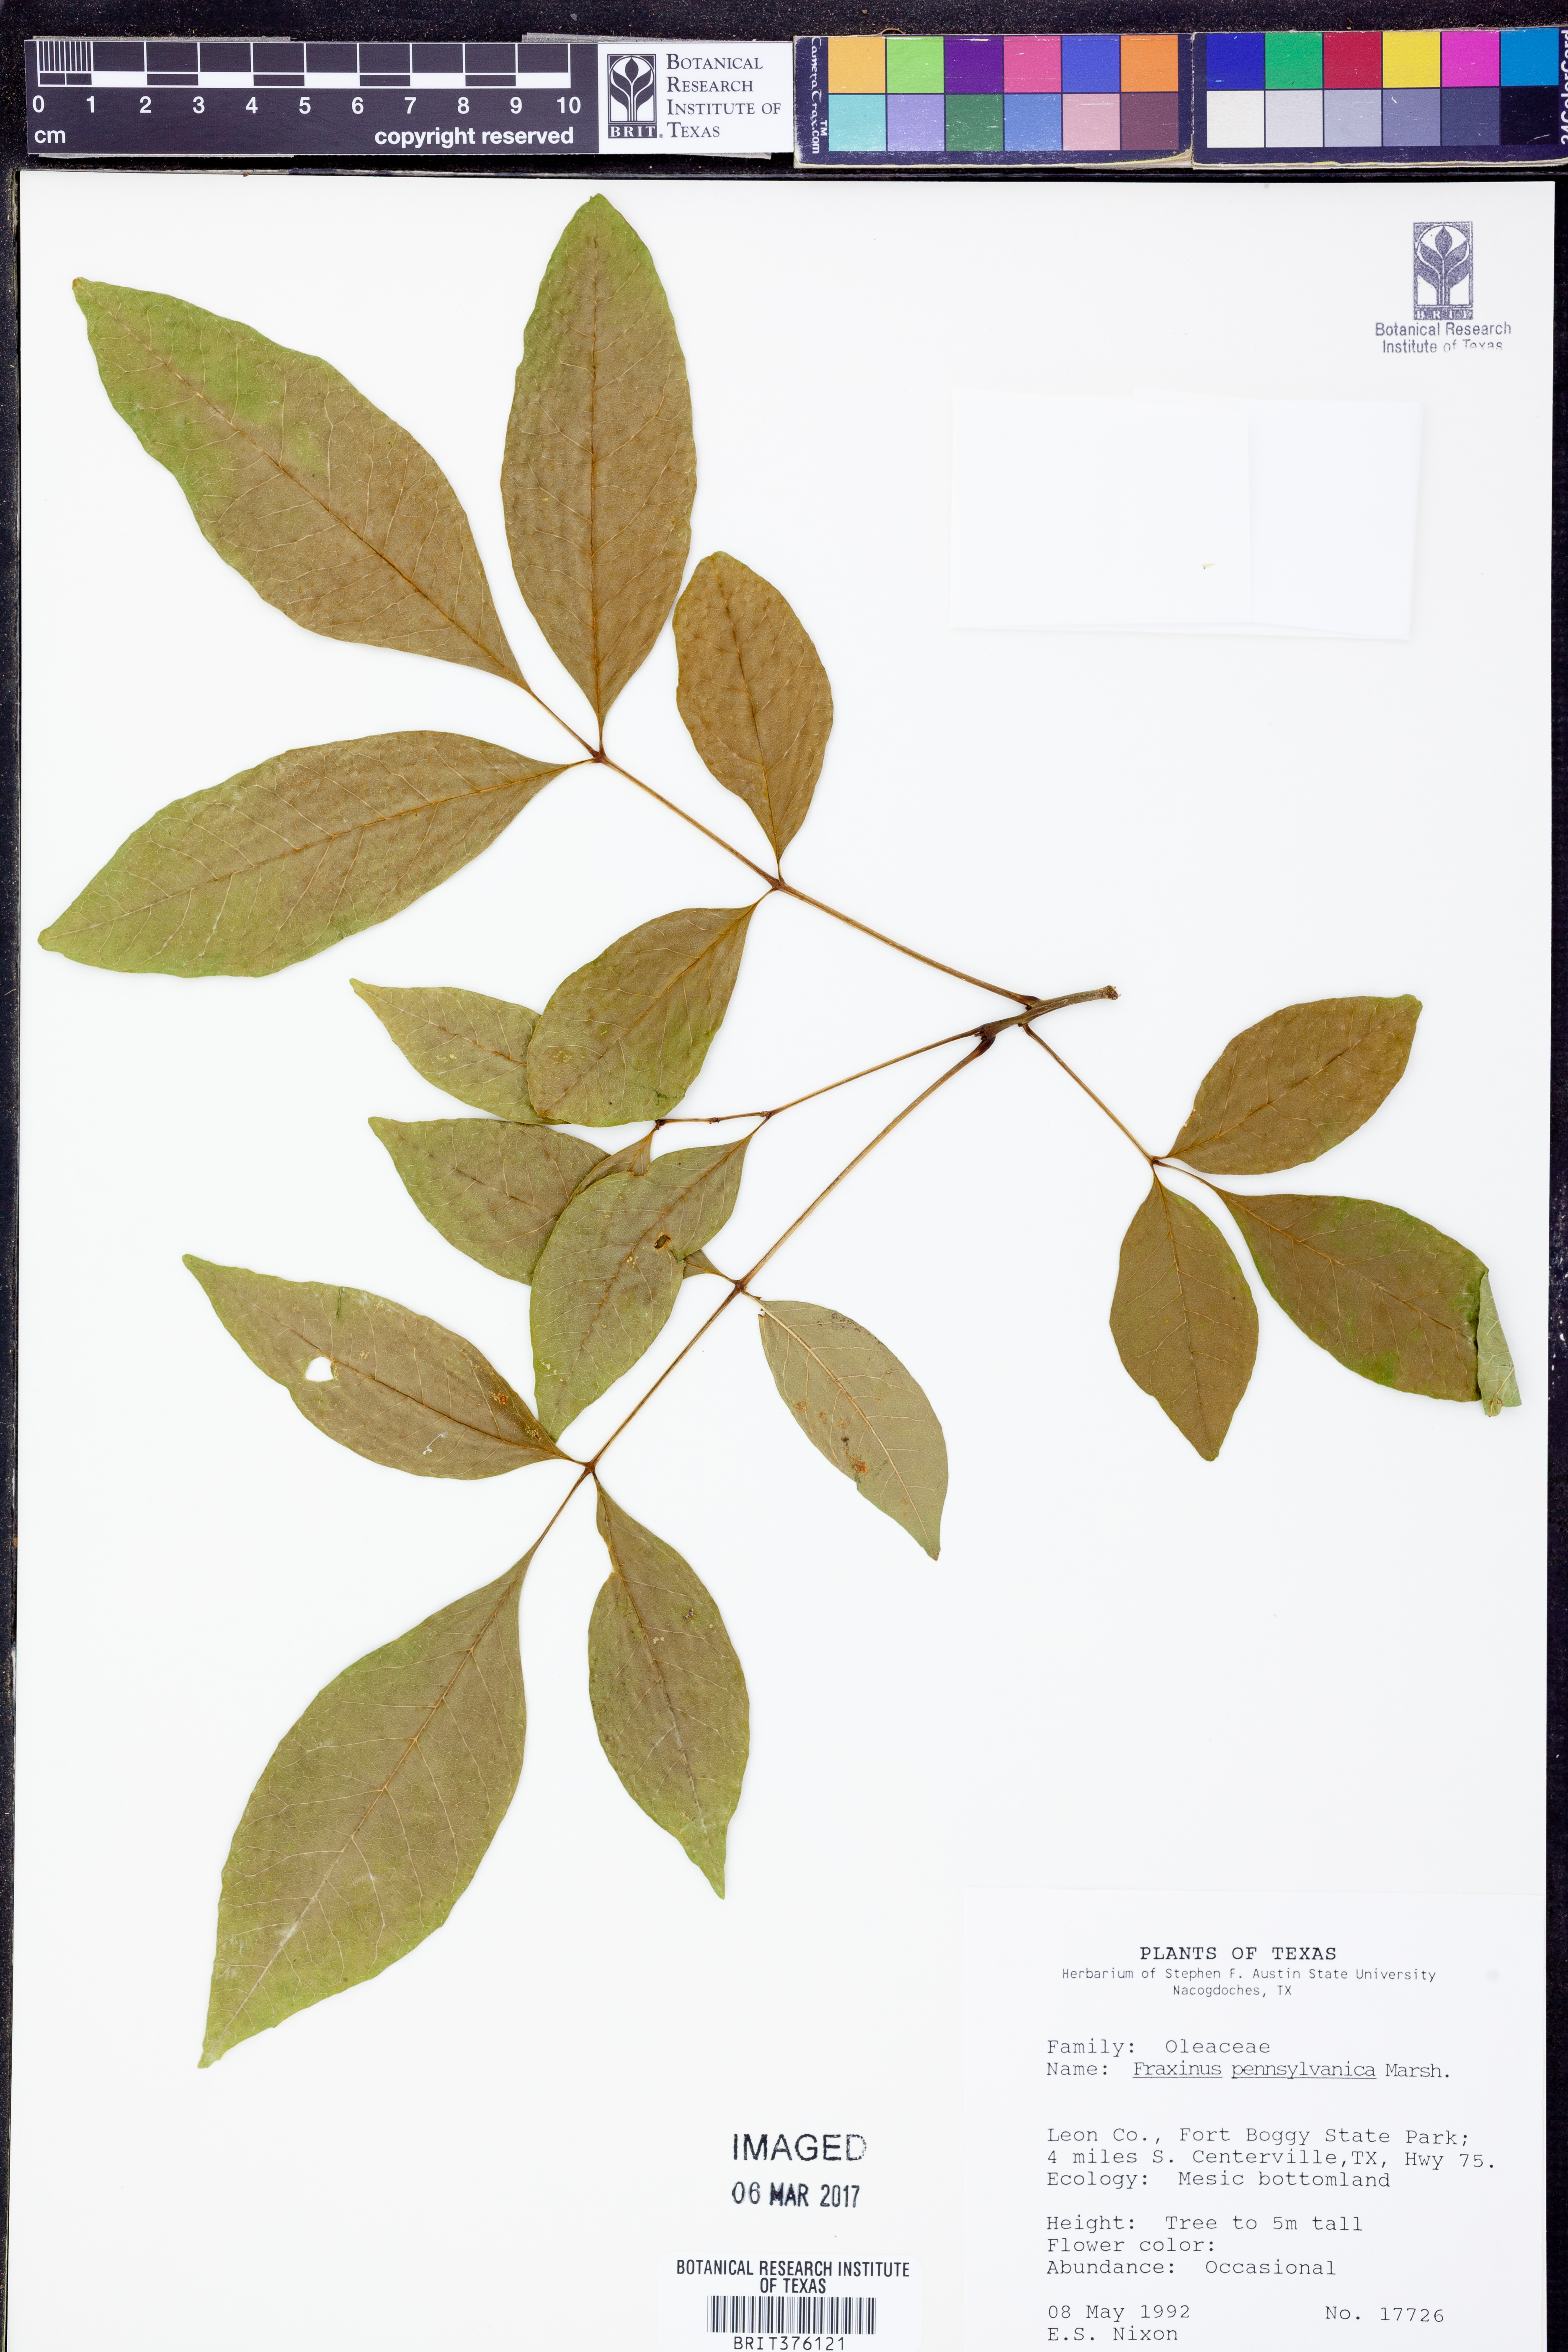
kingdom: Plantae
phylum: Tracheophyta
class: Magnoliopsida
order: Lamiales
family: Oleaceae
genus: Fraxinus
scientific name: Fraxinus pennsylvanica
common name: Green ash
